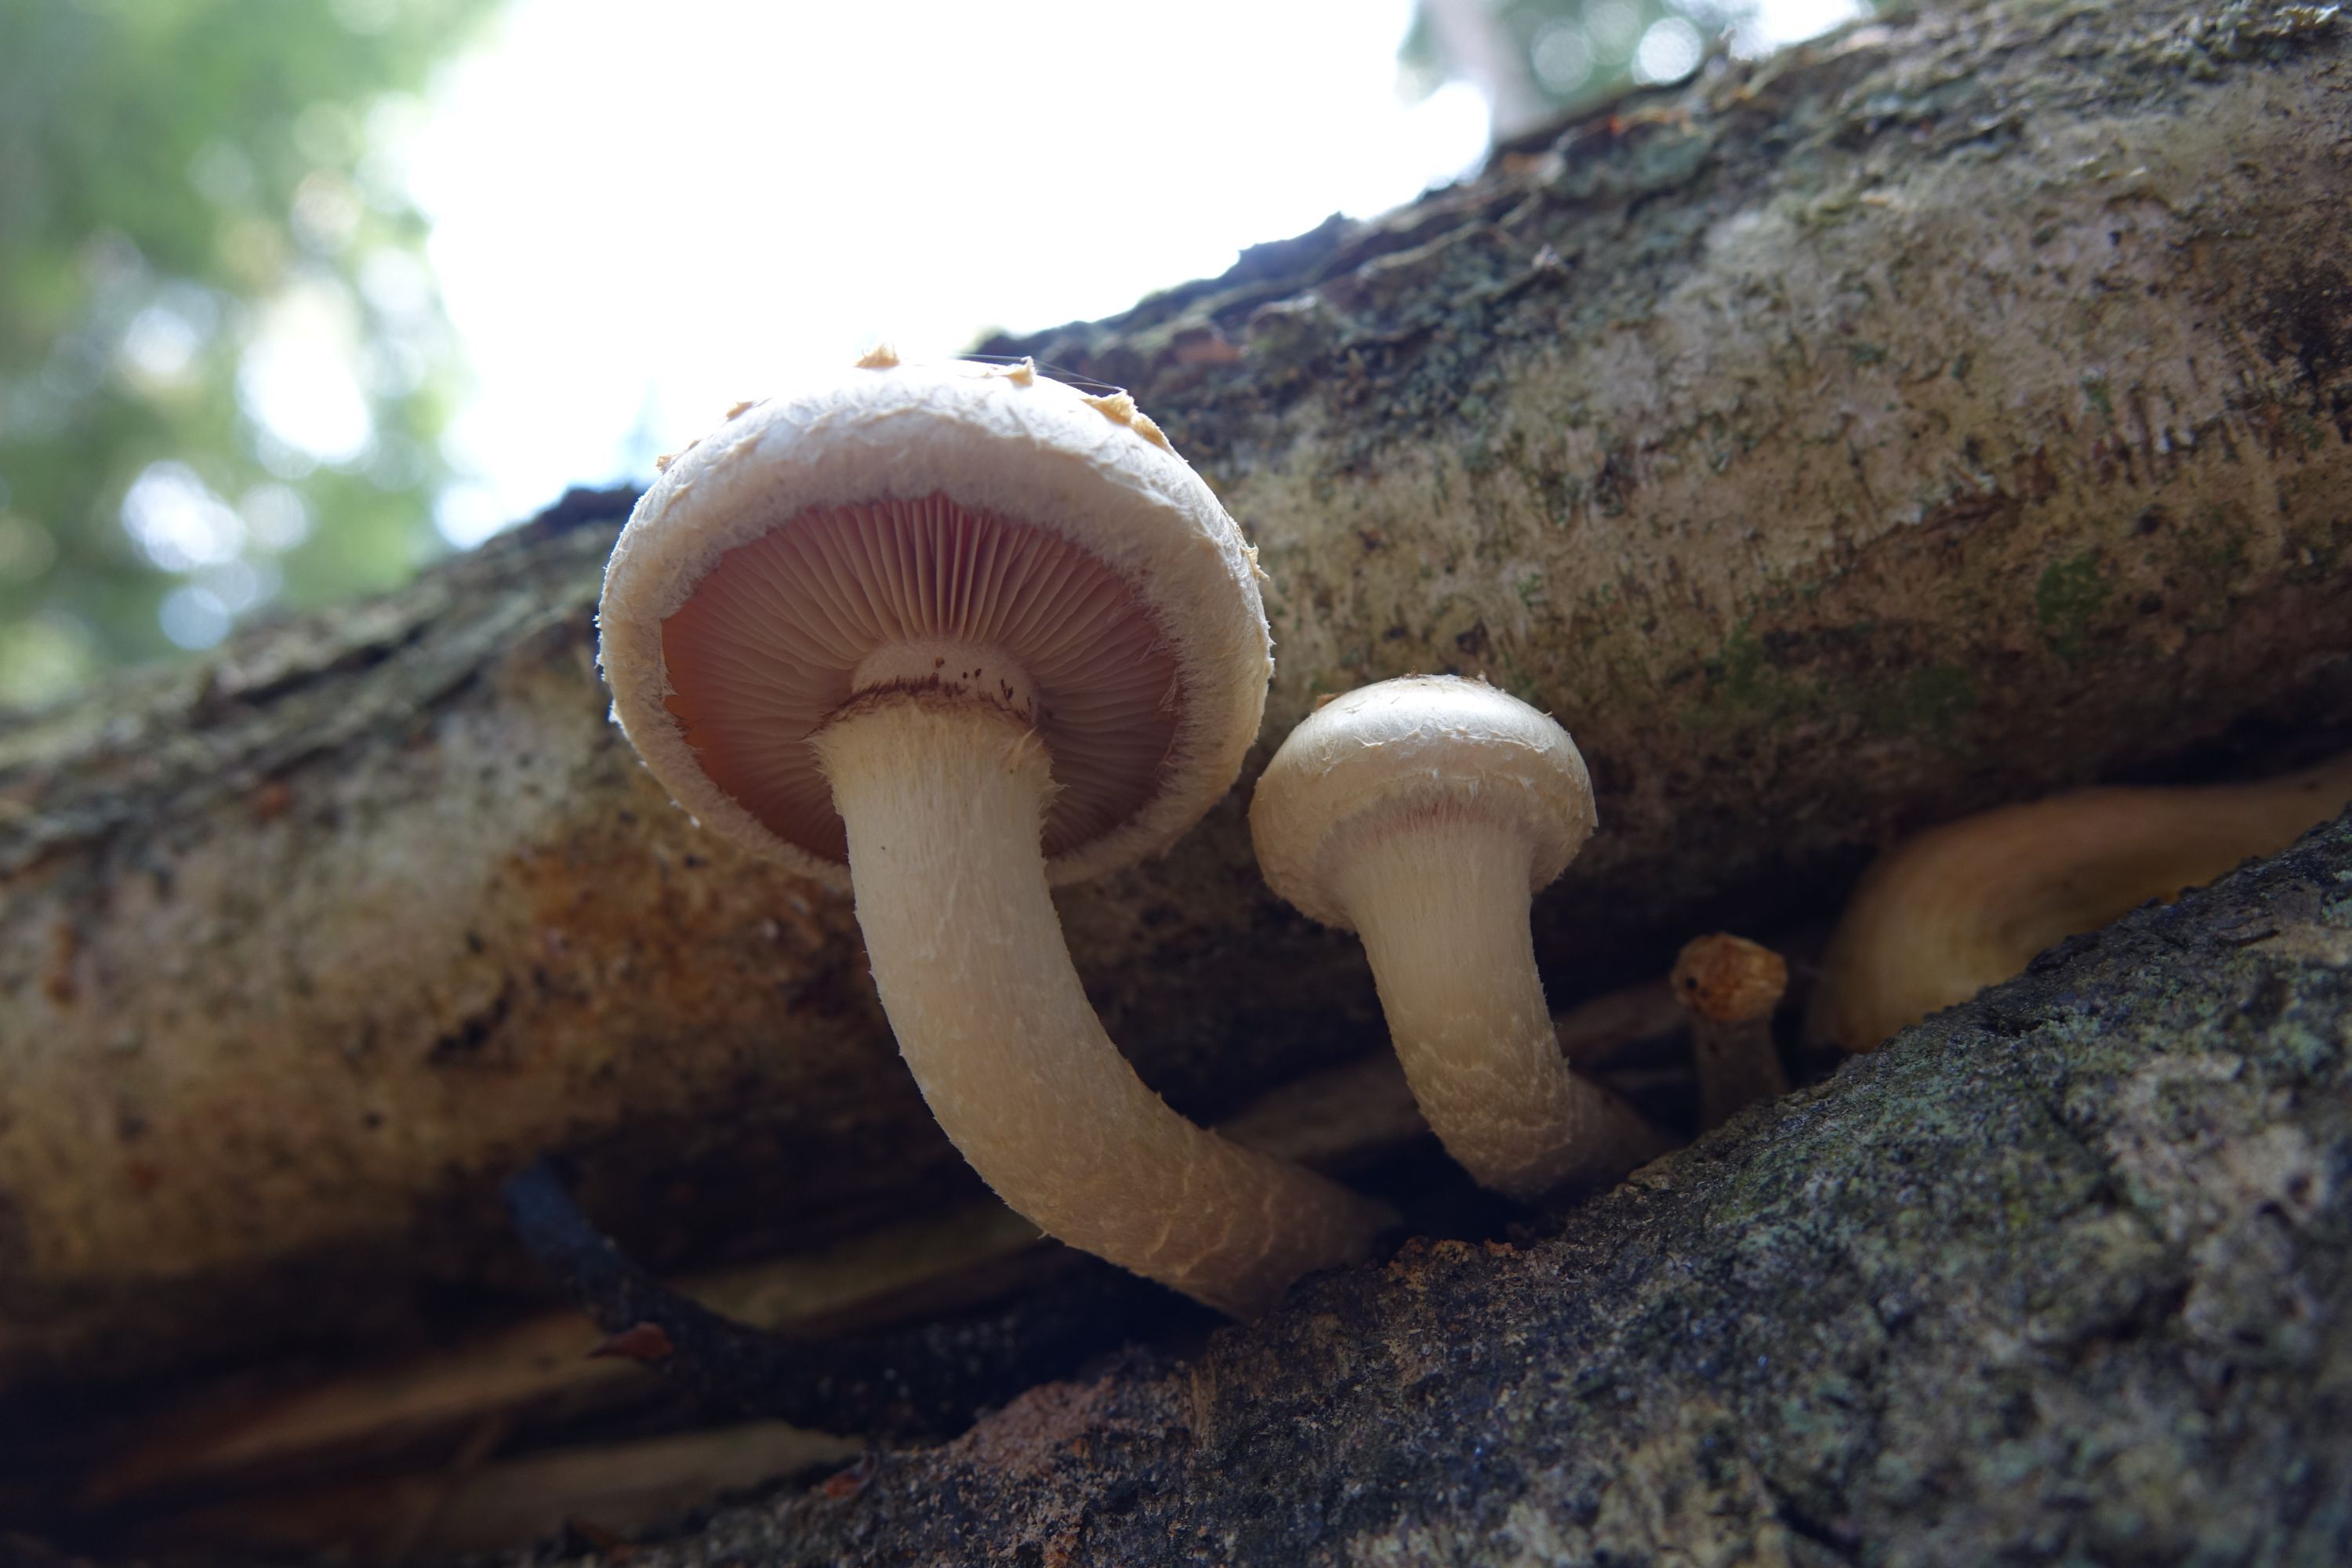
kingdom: Fungi
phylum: Basidiomycota
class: Agaricomycetes
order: Agaricales
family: Strophariaceae
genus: Pholiota
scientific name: Pholiota heteroclita
